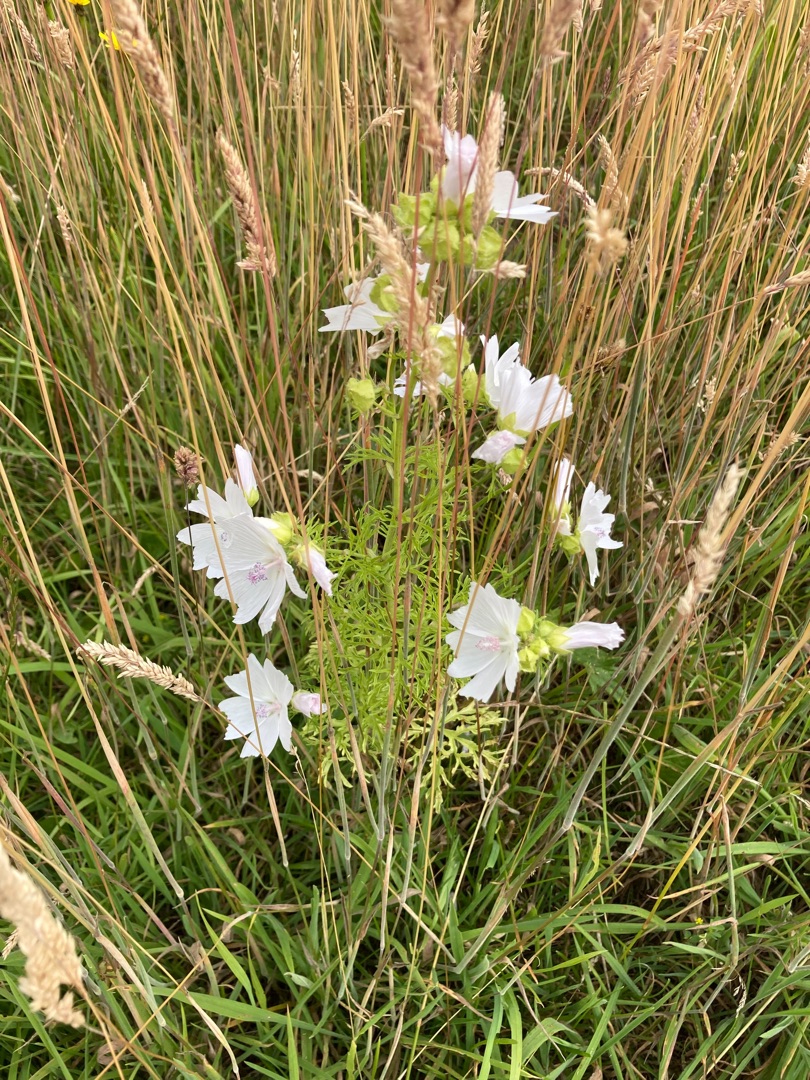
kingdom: Plantae
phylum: Tracheophyta
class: Magnoliopsida
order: Malvales
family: Malvaceae
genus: Malva
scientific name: Malva moschata
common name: Moskus-katost
